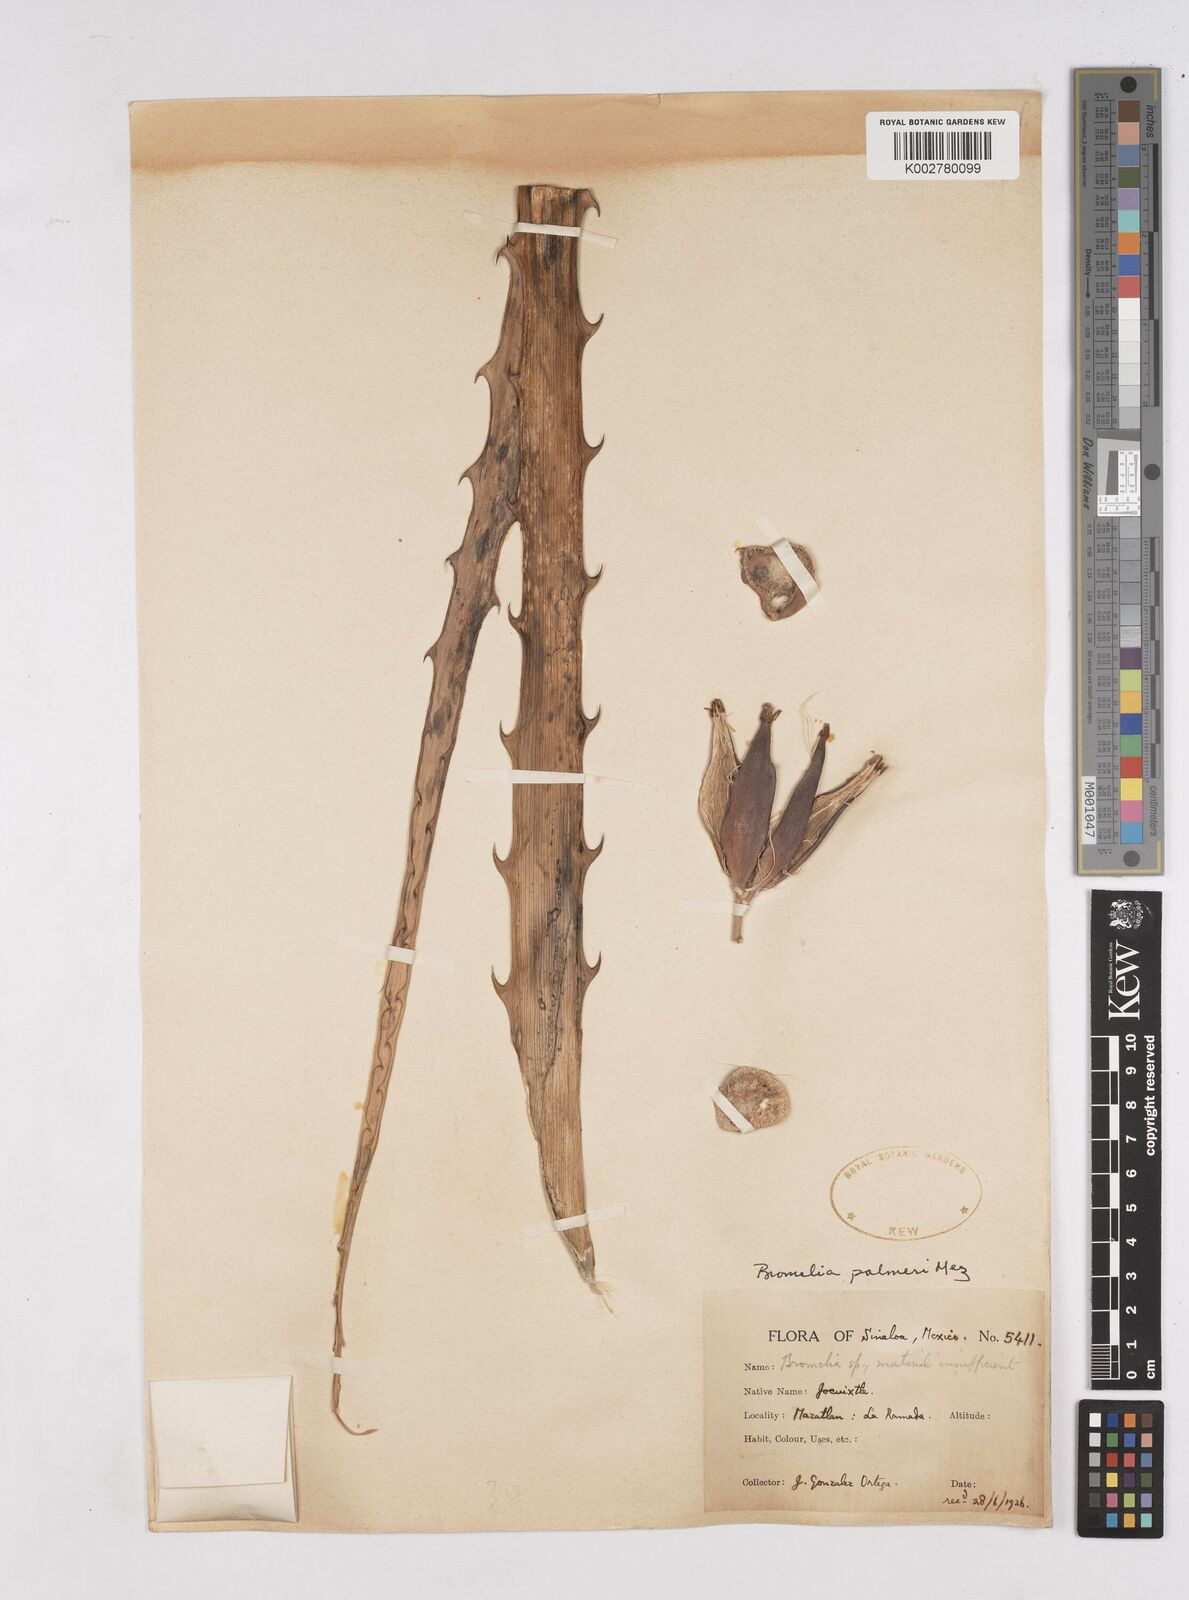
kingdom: Plantae
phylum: Tracheophyta
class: Liliopsida
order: Poales
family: Bromeliaceae
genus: Bromelia
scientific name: Bromelia palmeri
